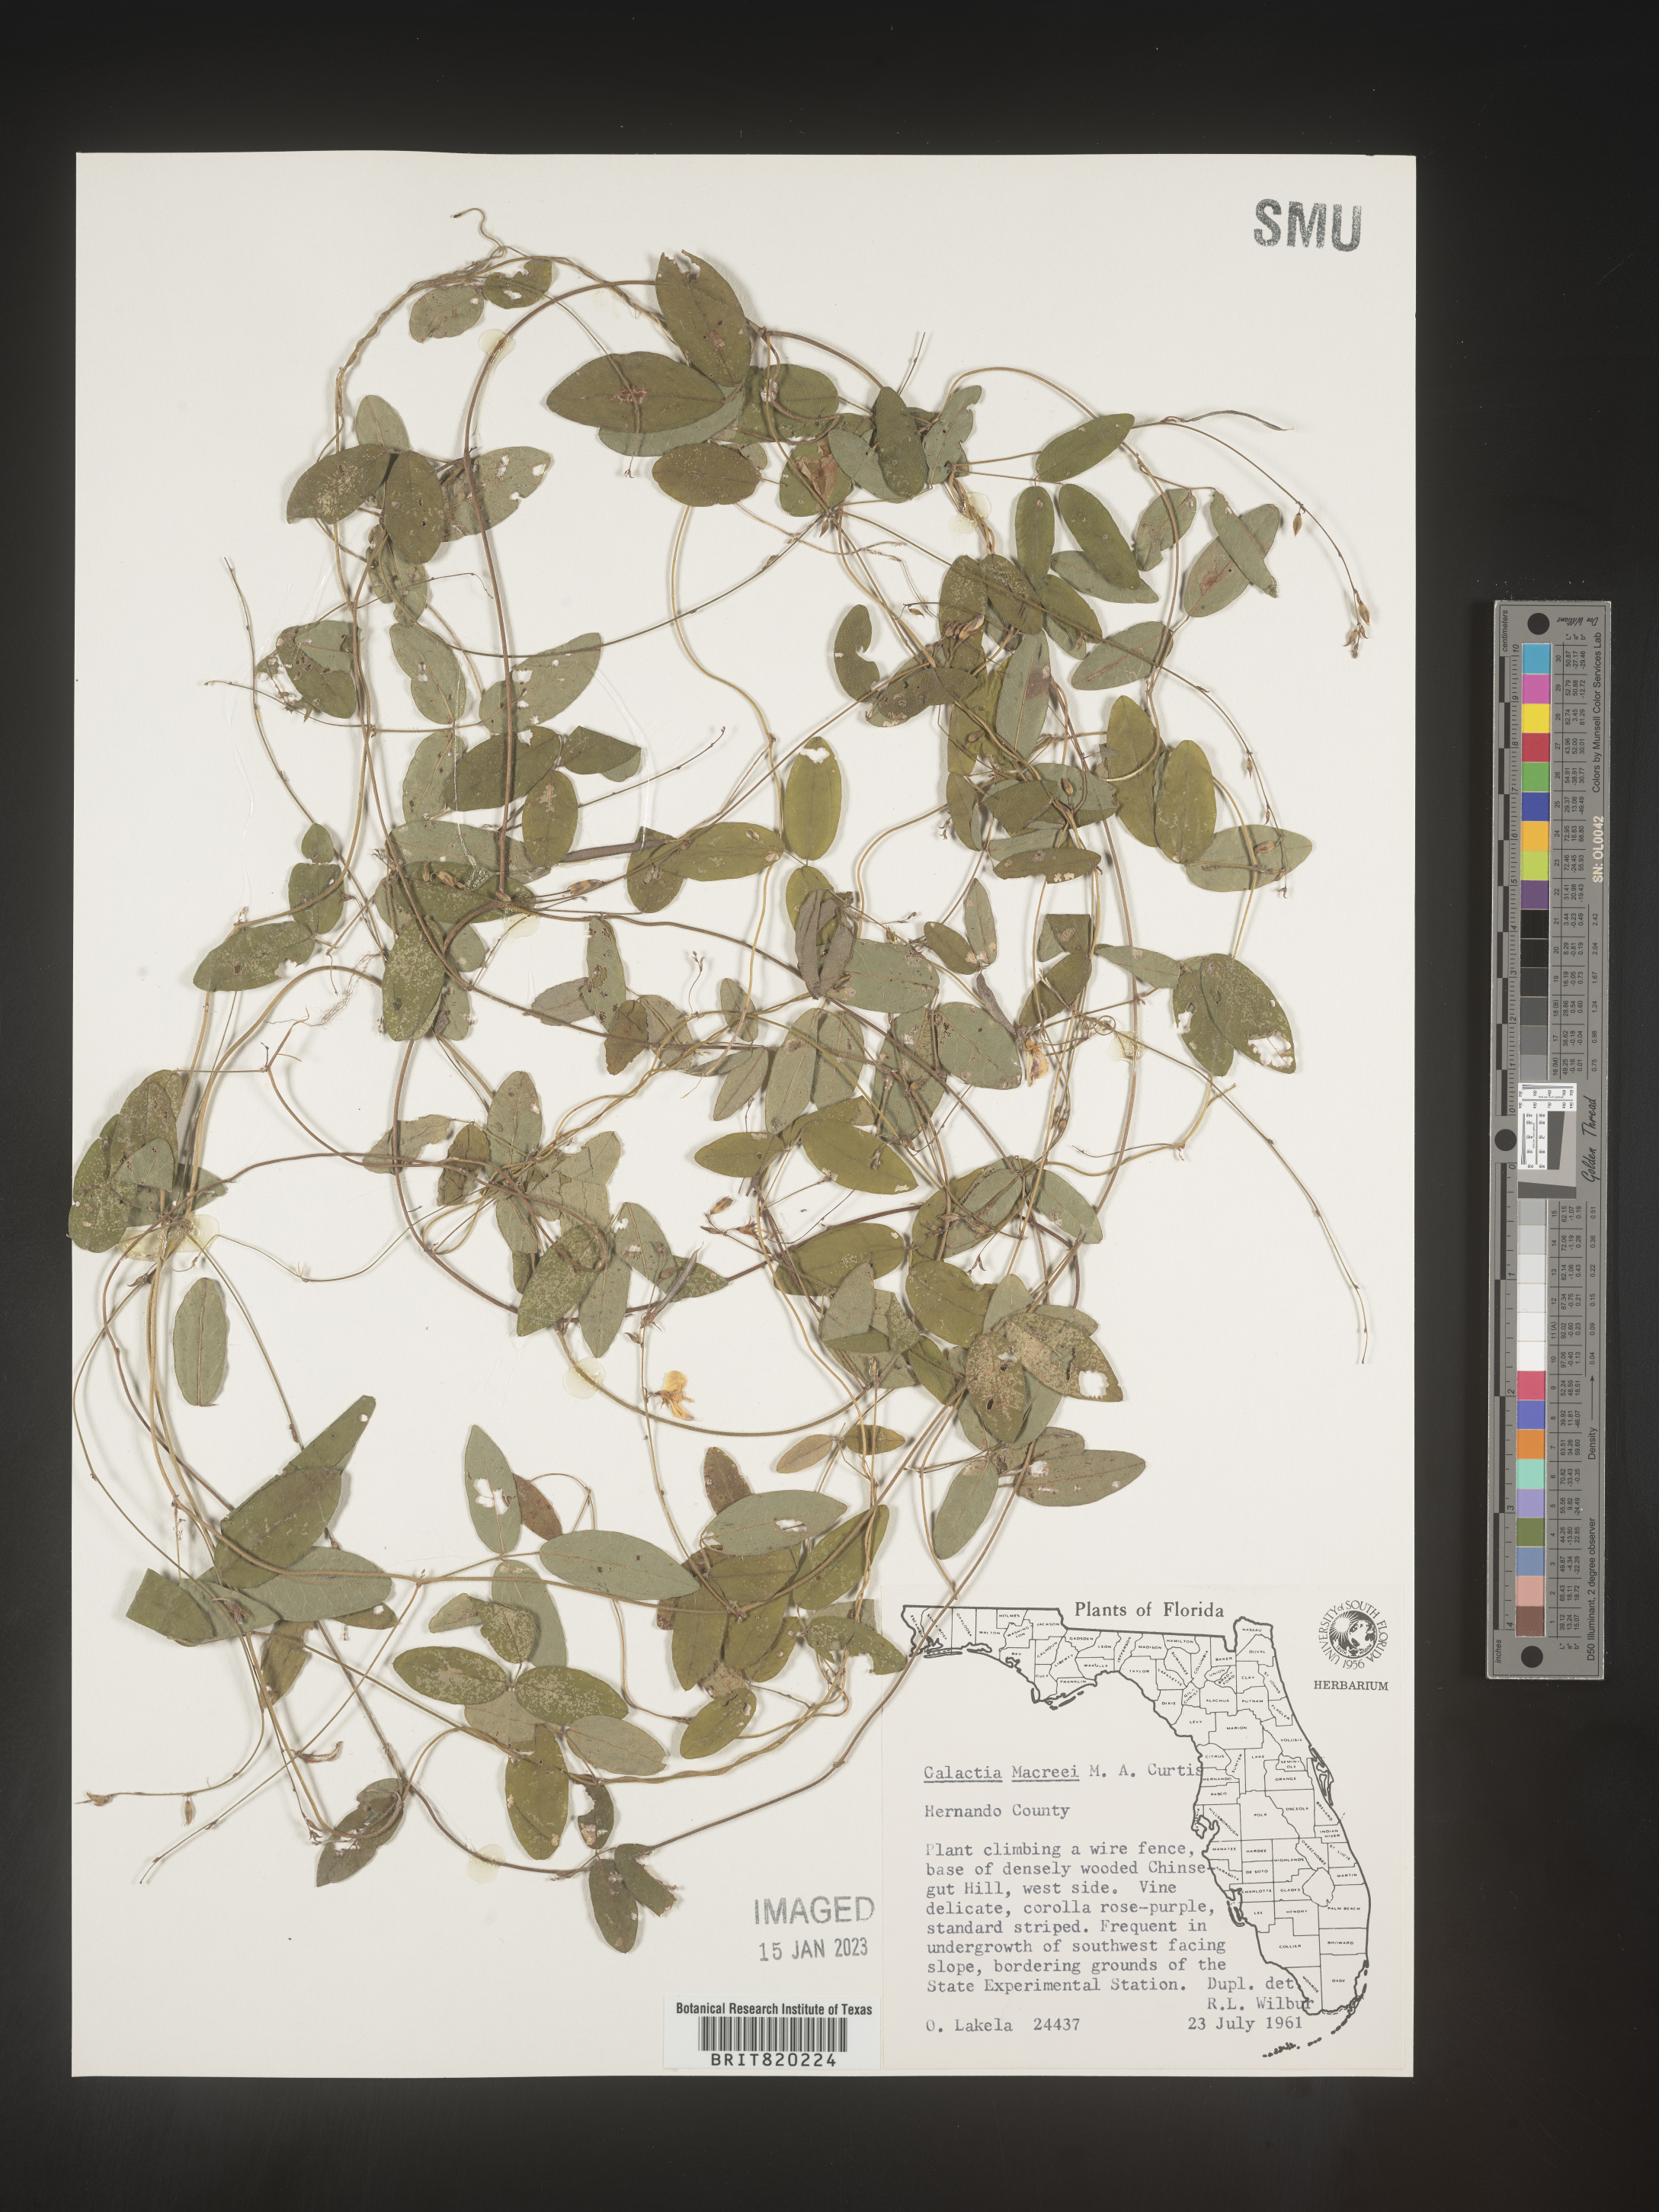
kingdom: Plantae
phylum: Tracheophyta
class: Magnoliopsida
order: Fabales
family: Fabaceae
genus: Galactia
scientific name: Galactia volubilis
